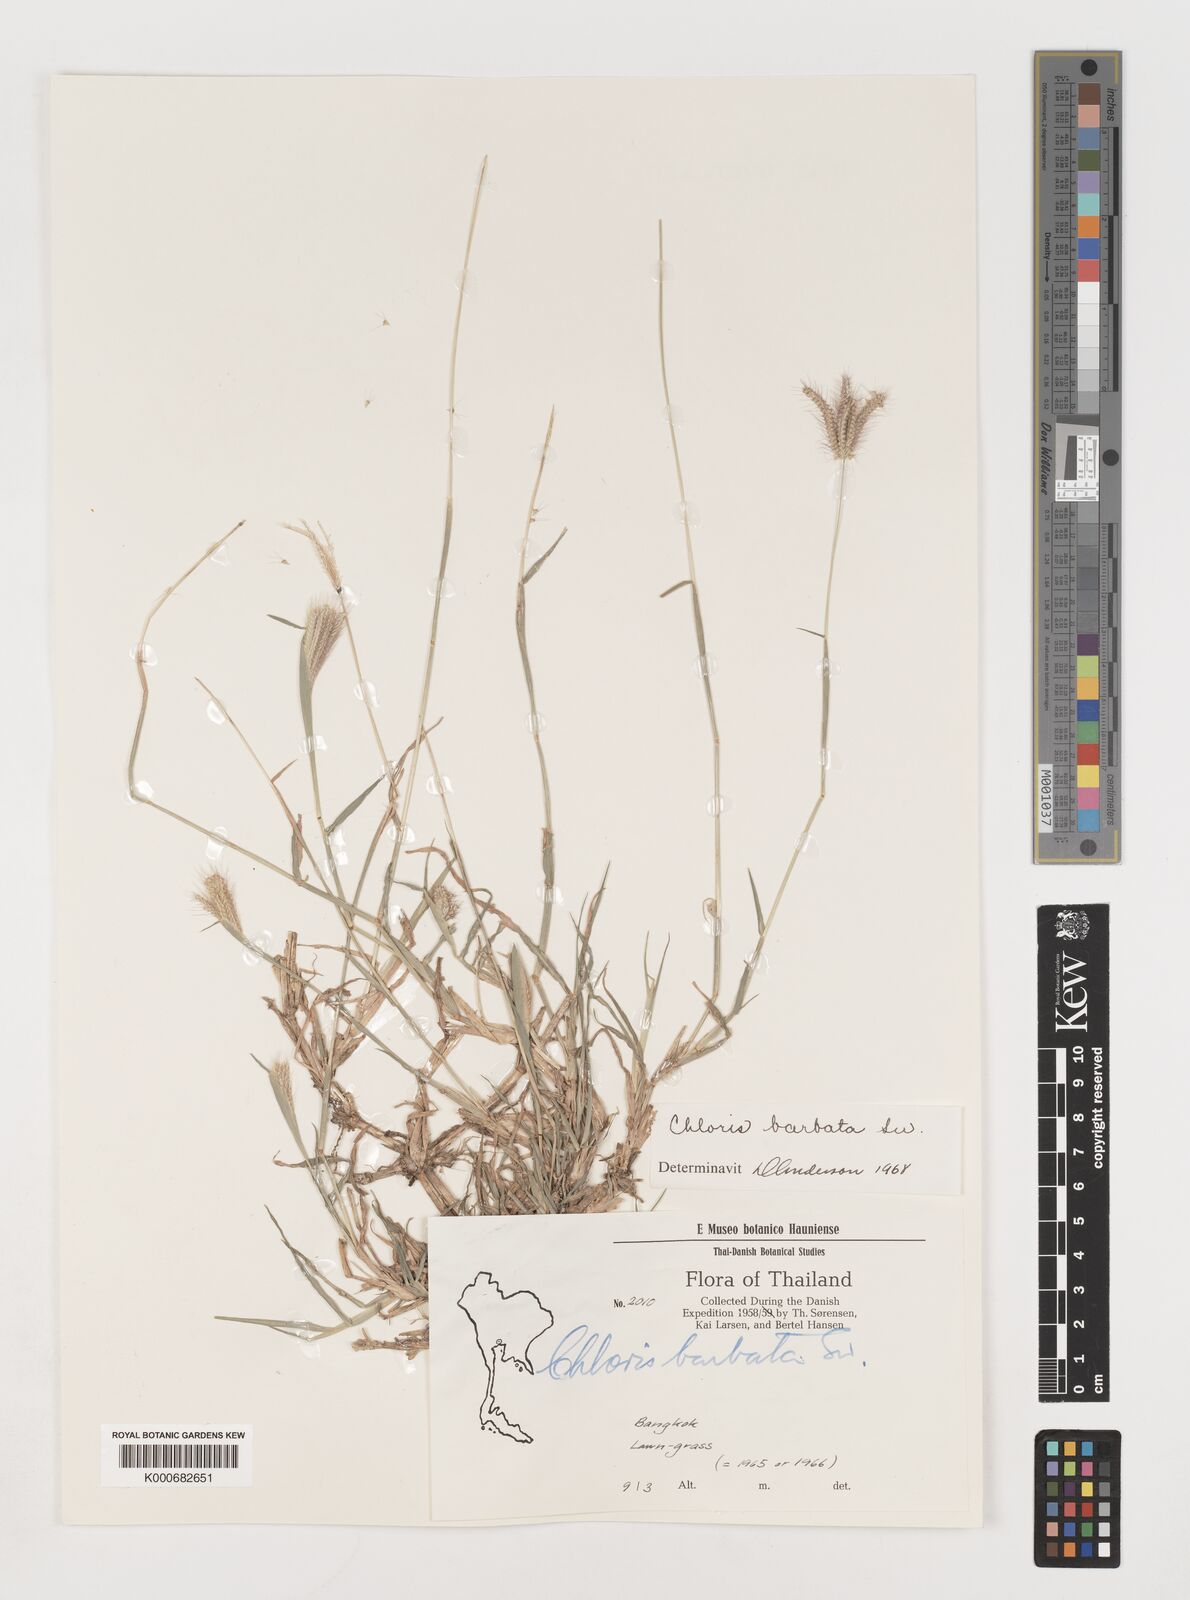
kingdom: Plantae
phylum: Tracheophyta
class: Liliopsida
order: Poales
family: Poaceae
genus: Chloris
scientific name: Chloris barbata
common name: Swollen fingergrass
